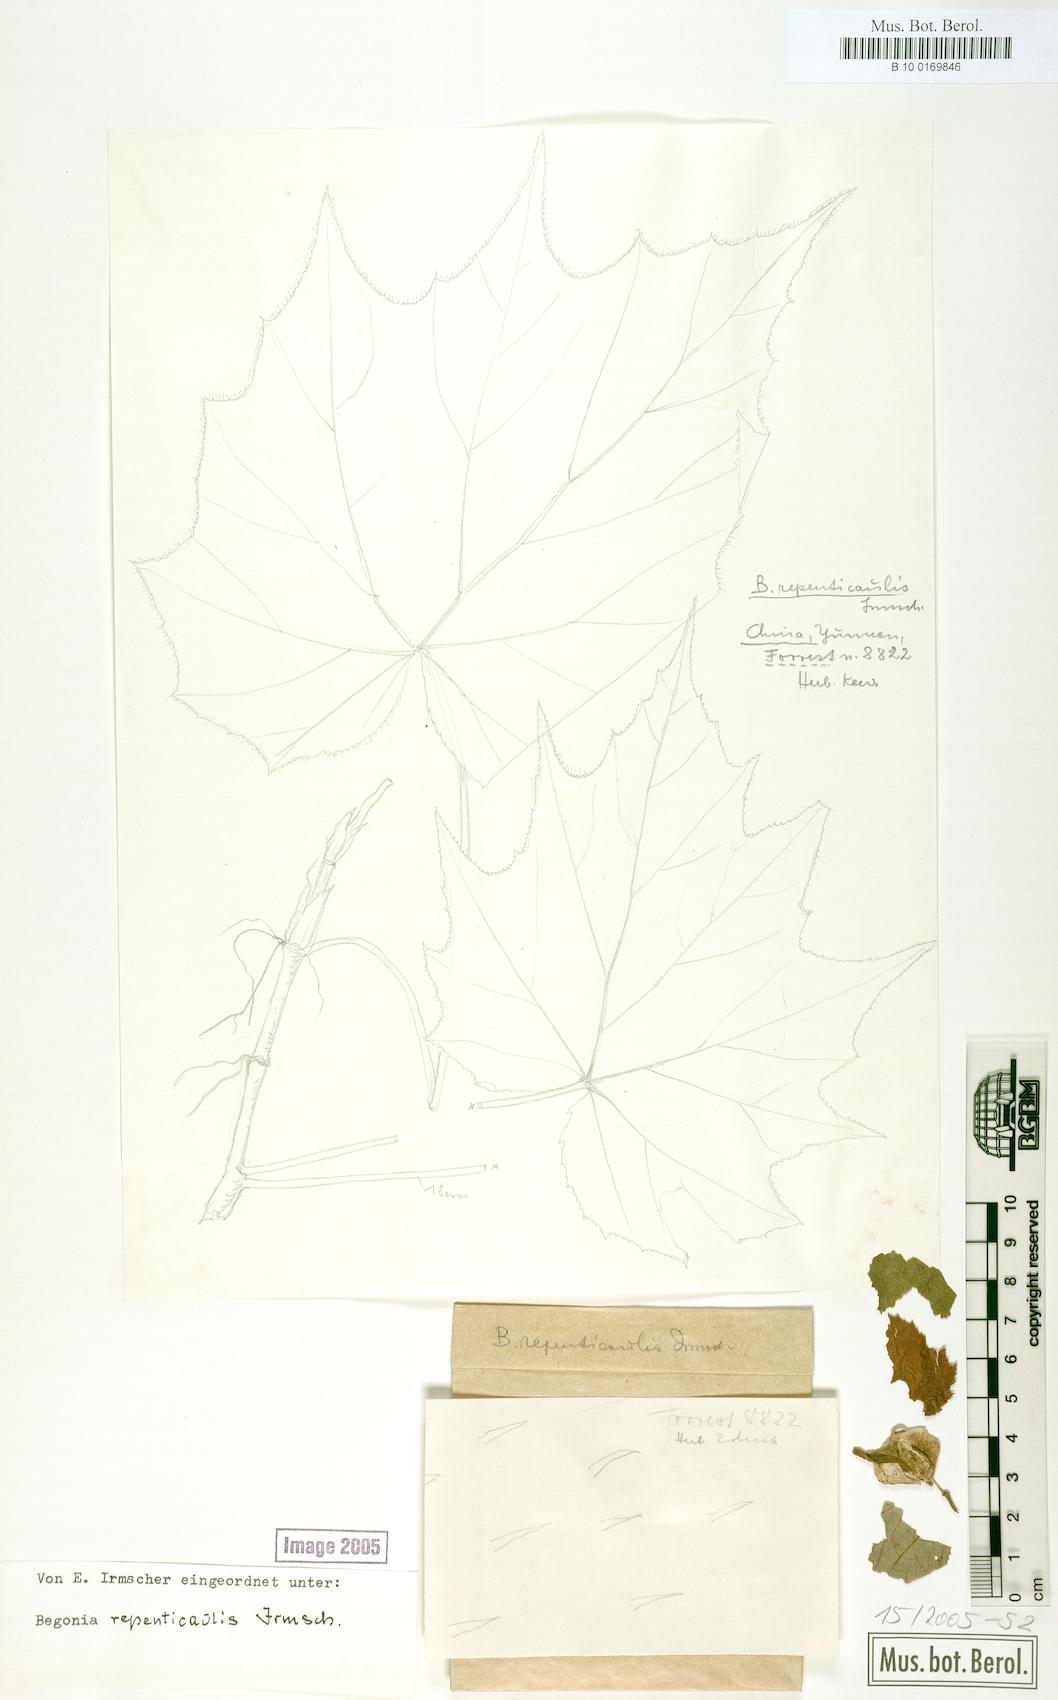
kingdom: Plantae
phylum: Tracheophyta
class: Magnoliopsida
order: Cucurbitales
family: Begoniaceae
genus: Begonia
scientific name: Begonia repenticaulis
